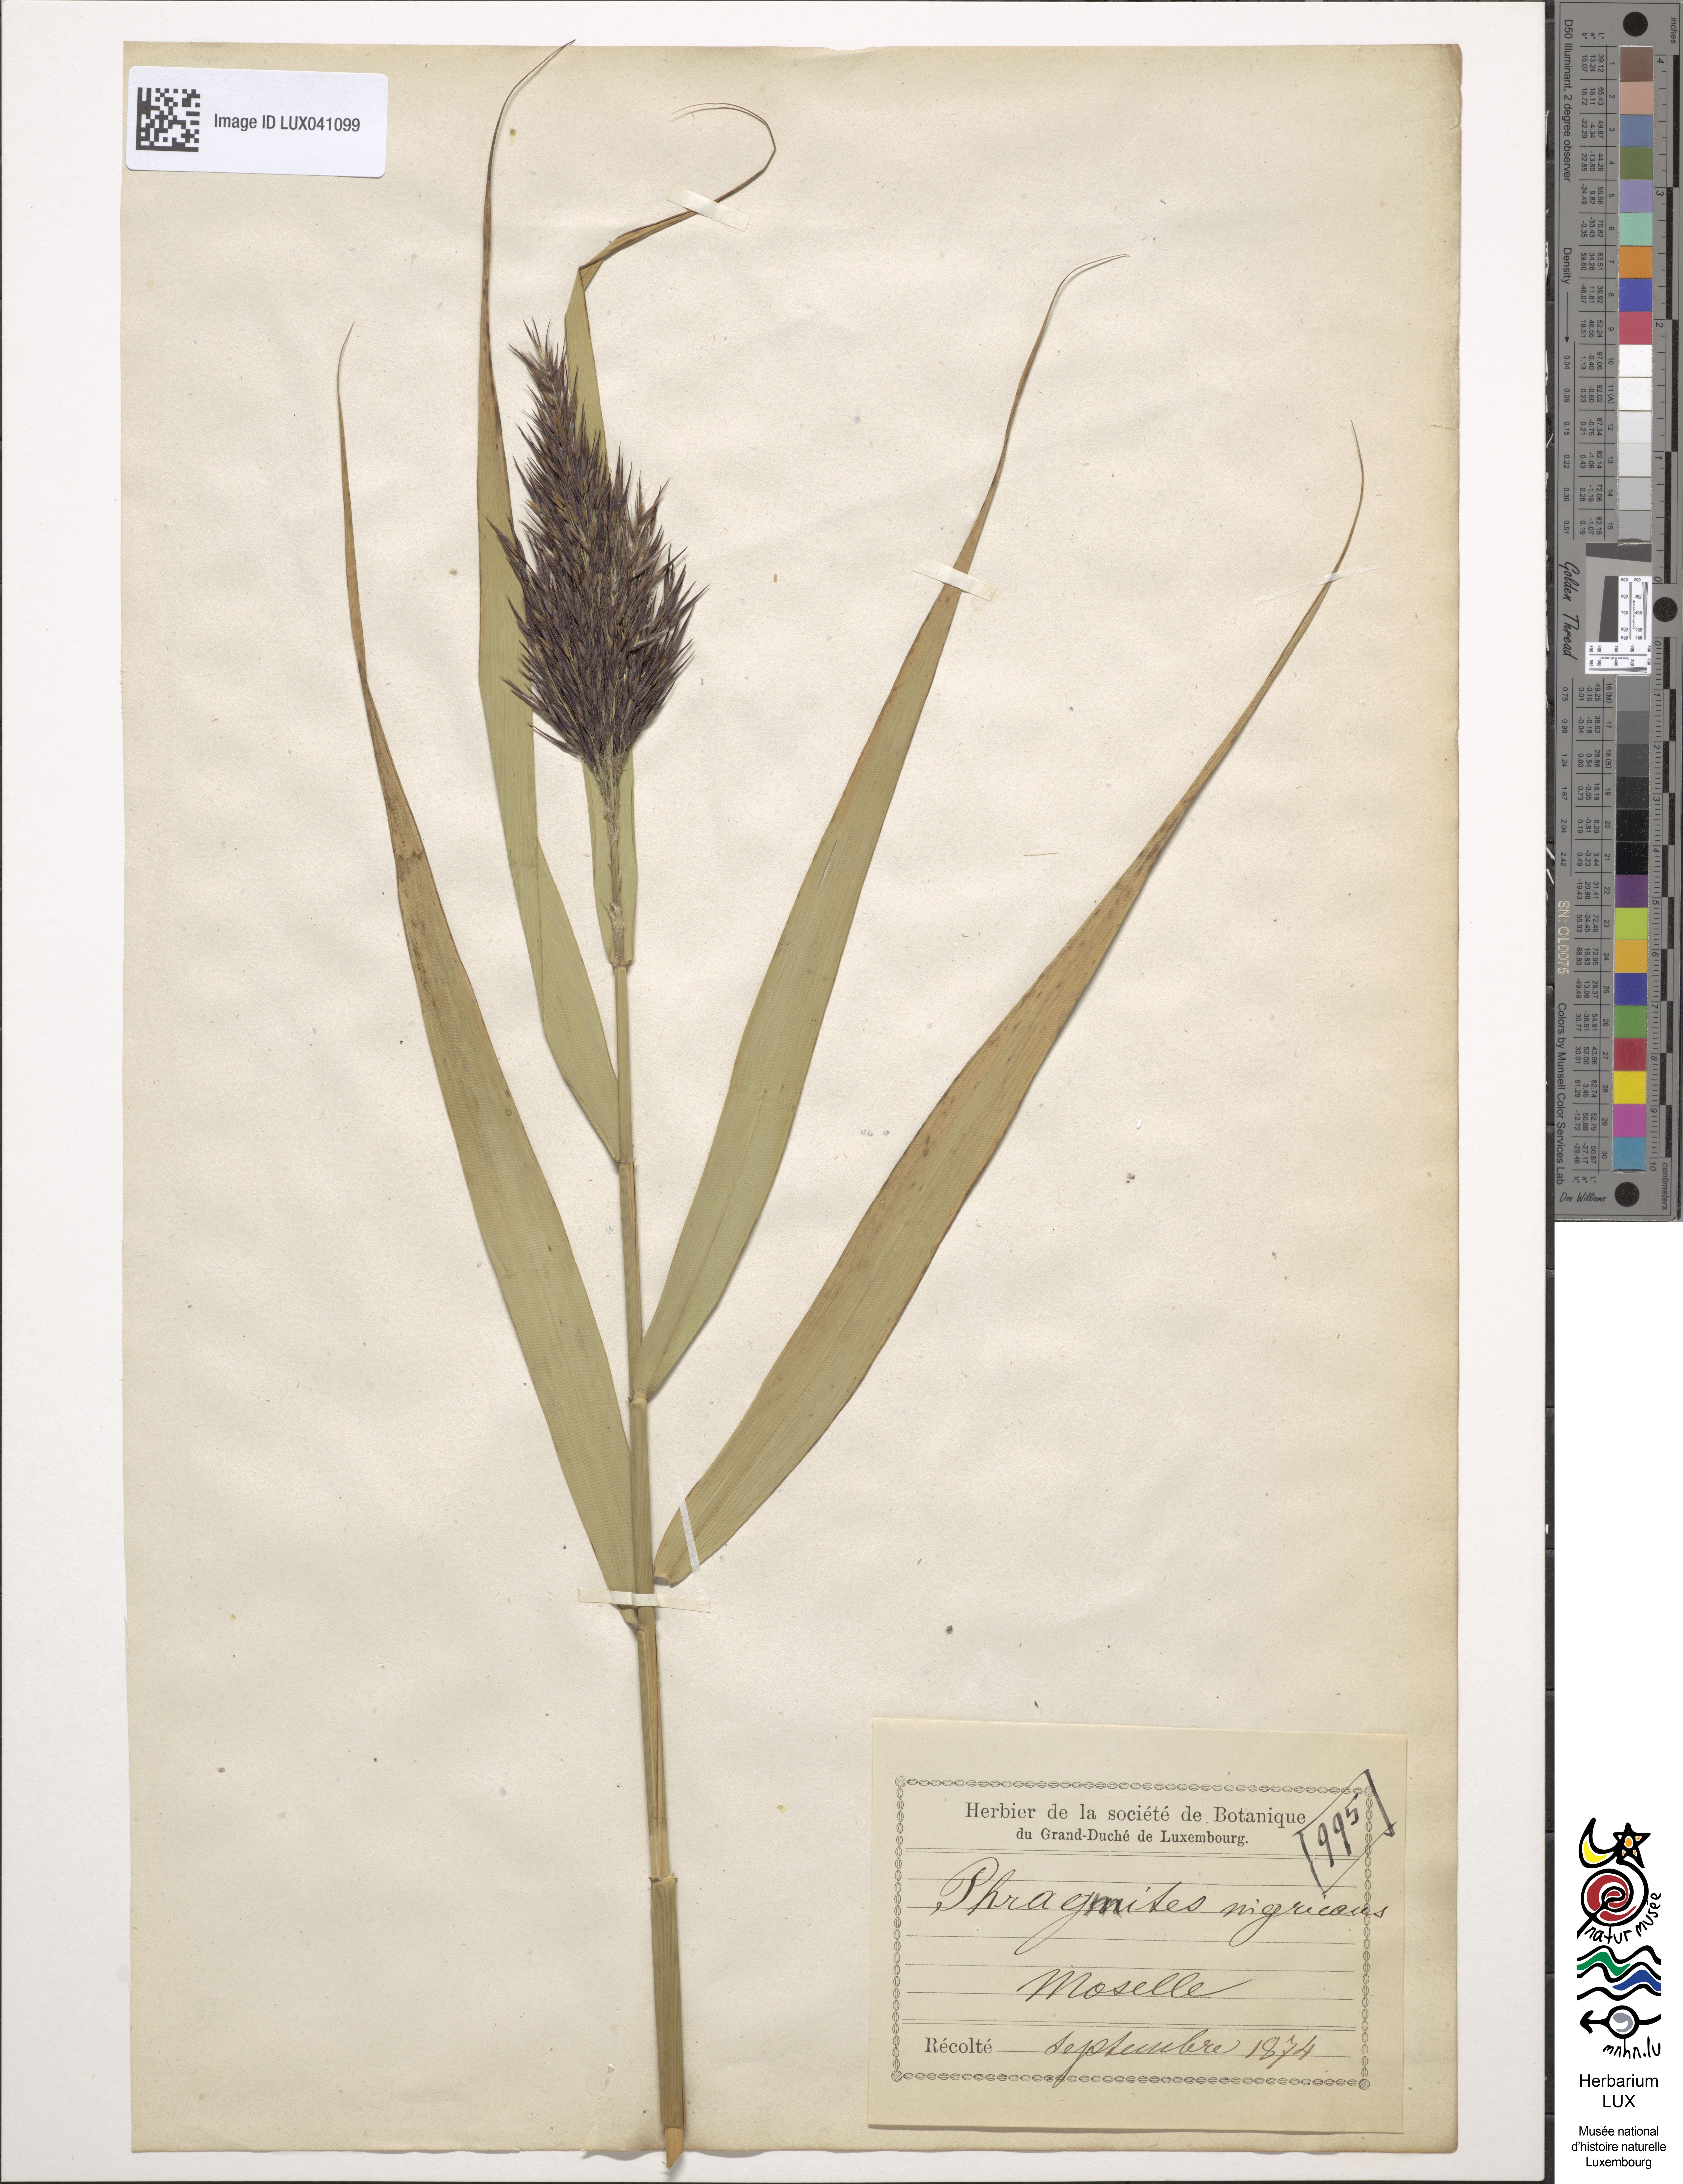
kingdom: Plantae
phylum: Tracheophyta
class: Liliopsida
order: Poales
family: Poaceae
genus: Phragmites
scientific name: Phragmites australis
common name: Common reed
